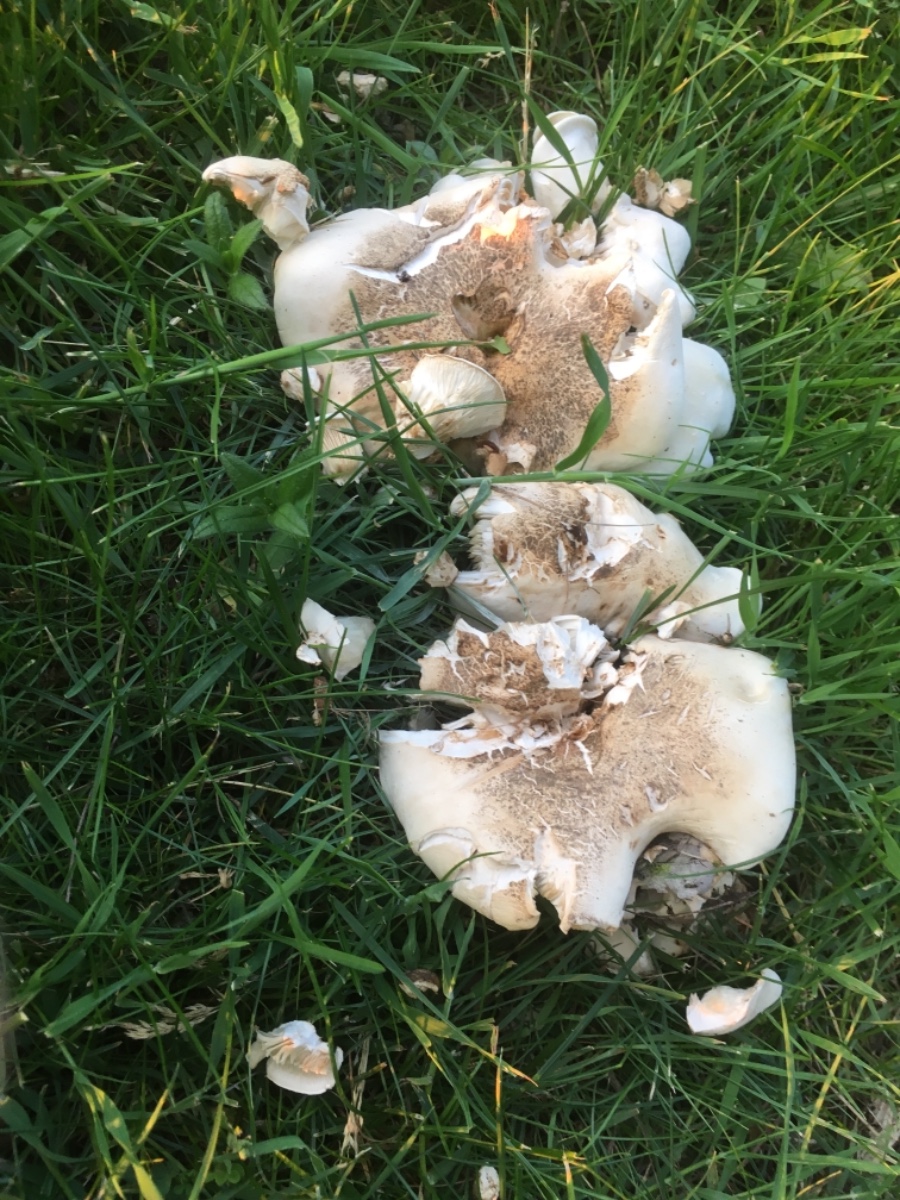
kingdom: Fungi
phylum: Basidiomycota
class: Agaricomycetes
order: Agaricales
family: Lyophyllaceae
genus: Calocybe
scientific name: Calocybe gambosa
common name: vårmusseron
